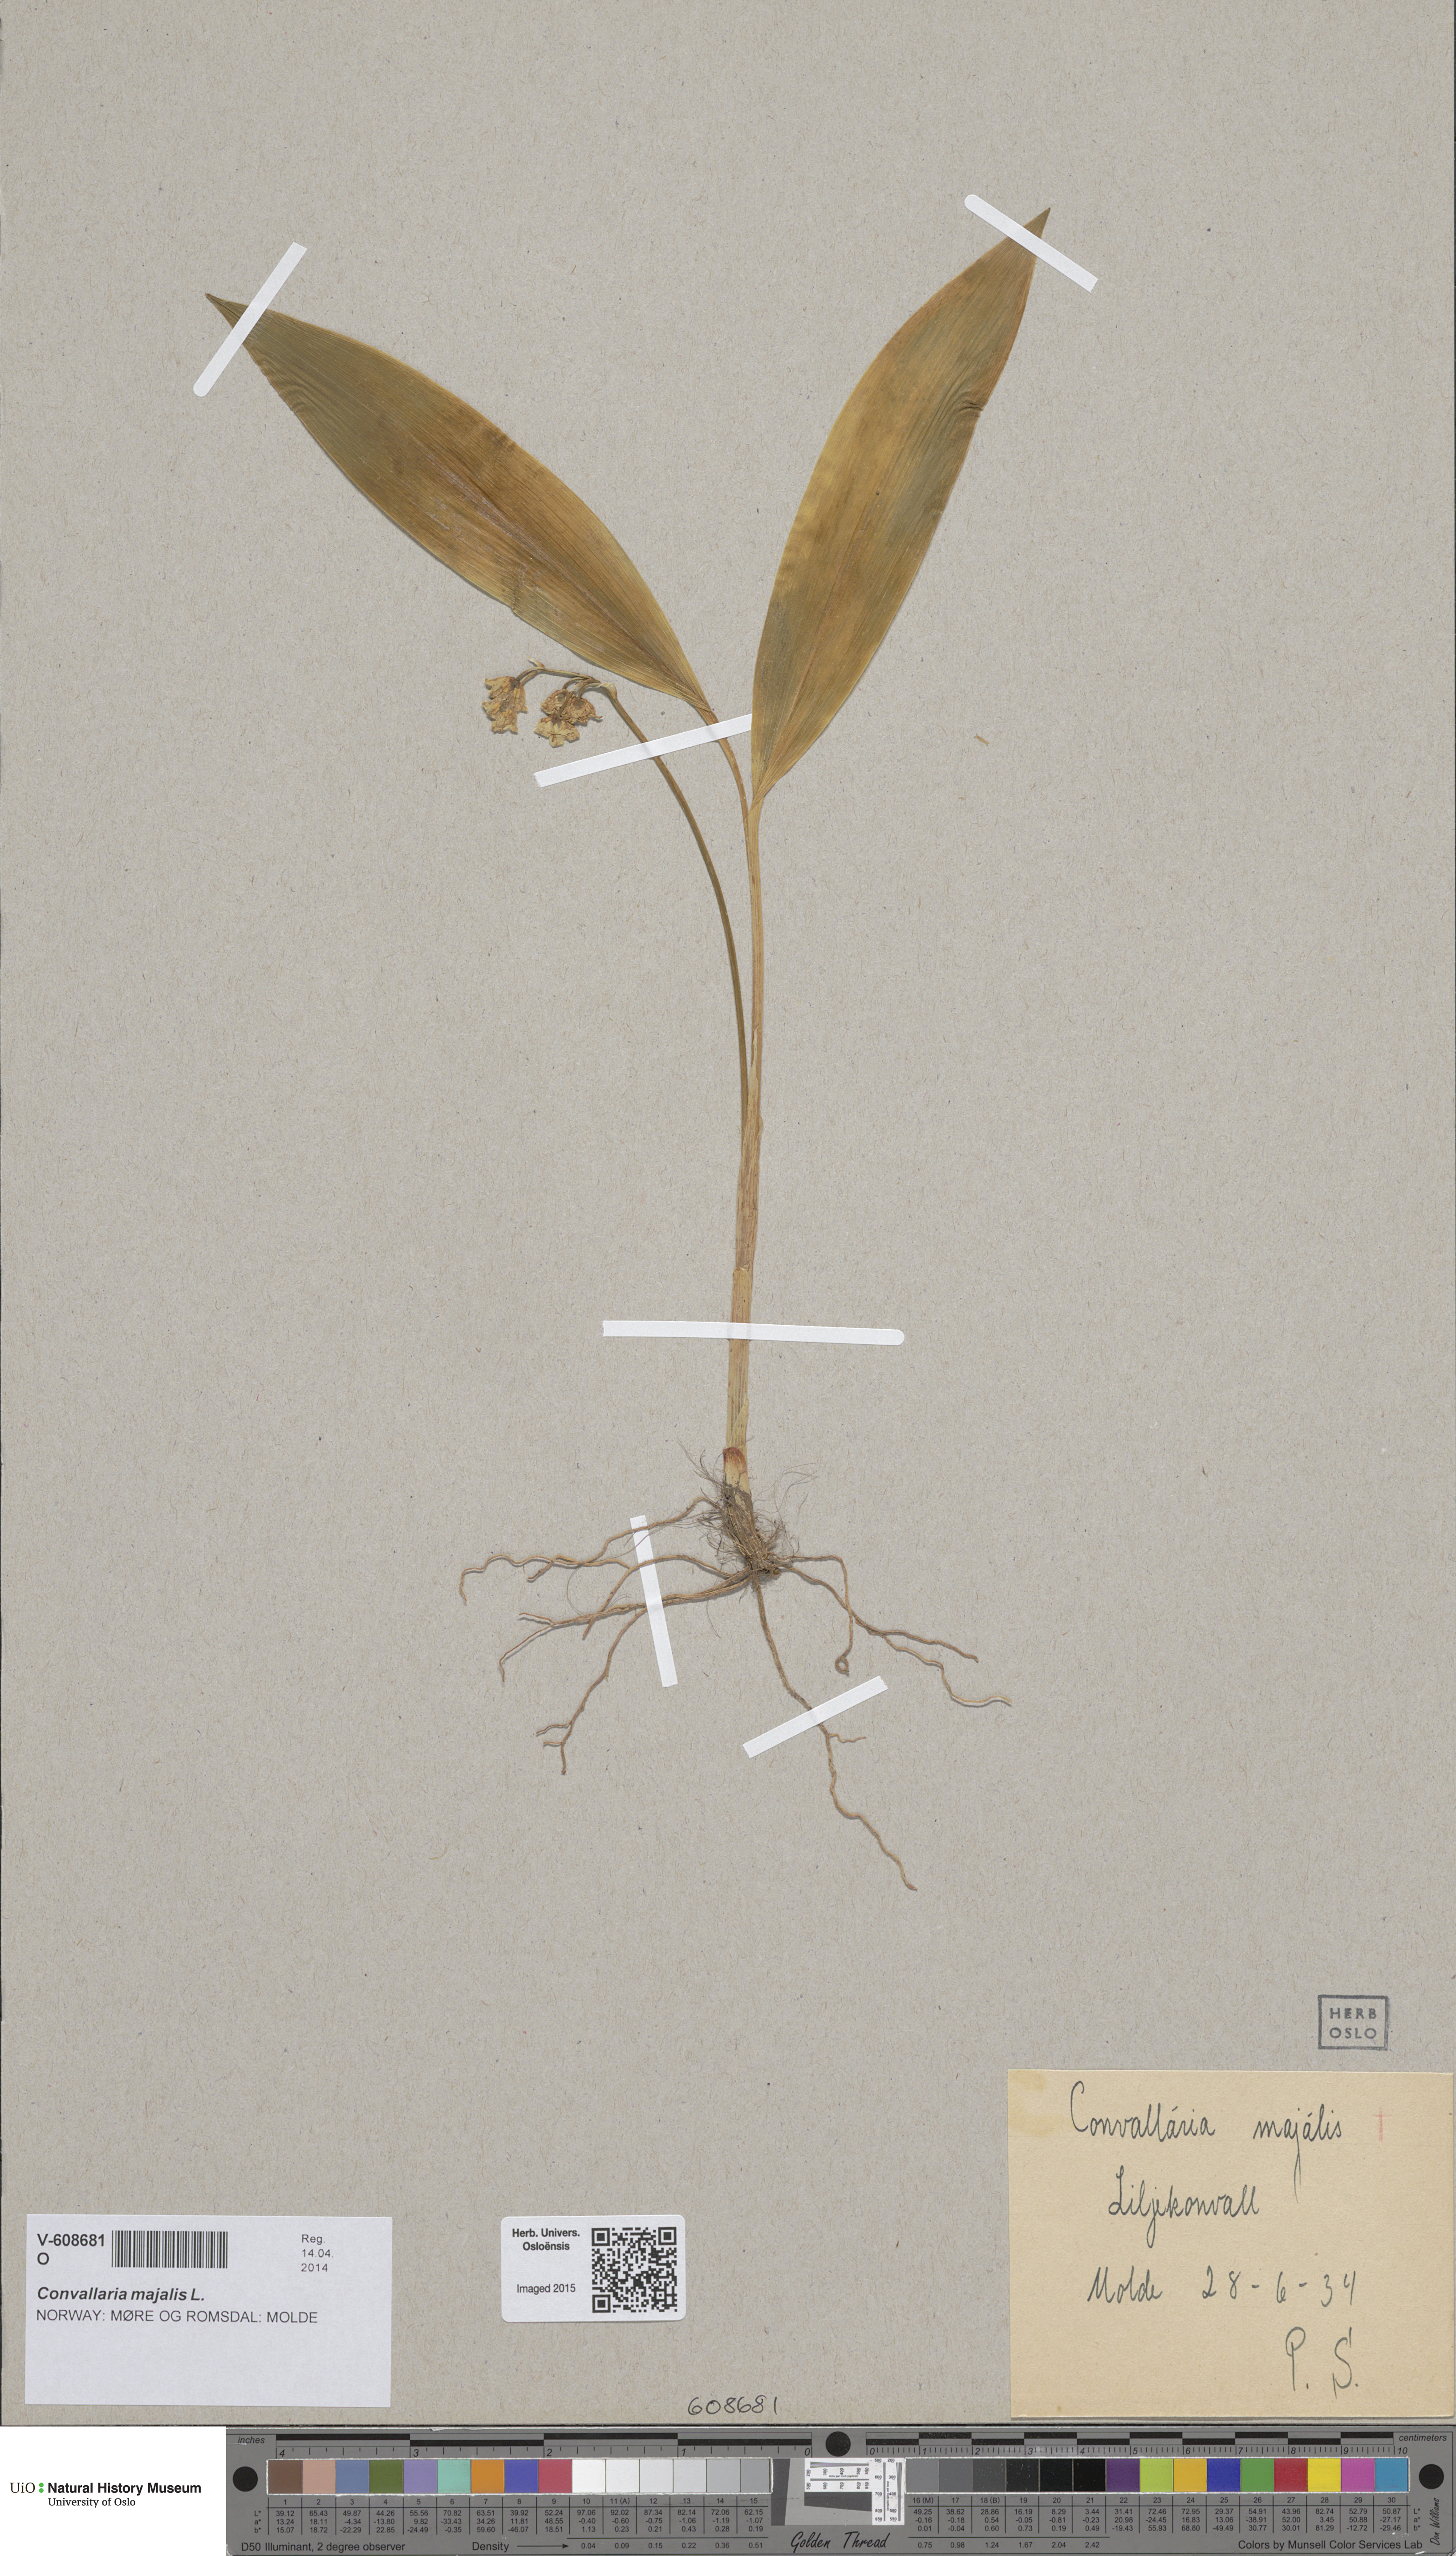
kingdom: Plantae
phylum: Tracheophyta
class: Liliopsida
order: Asparagales
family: Asparagaceae
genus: Convallaria
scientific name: Convallaria majalis
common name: Lily-of-the-valley
